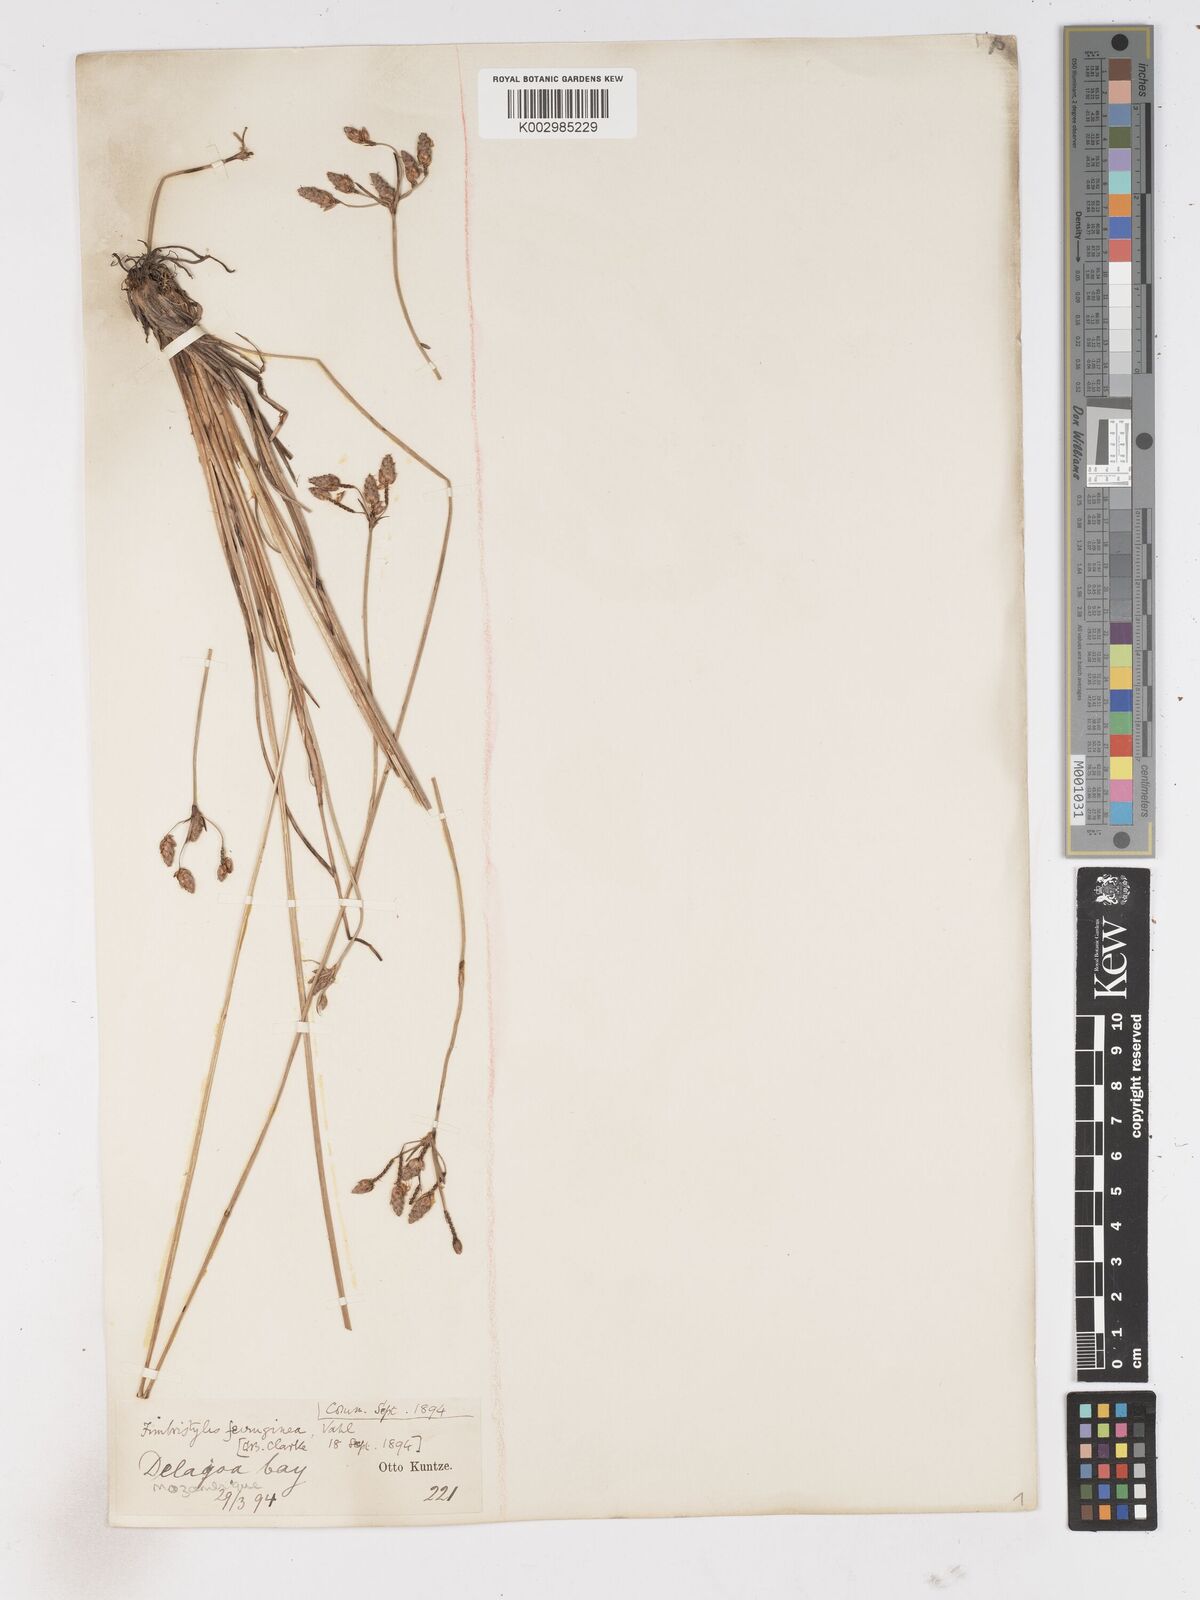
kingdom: Plantae
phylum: Tracheophyta
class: Liliopsida
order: Poales
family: Cyperaceae
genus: Fimbristylis
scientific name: Fimbristylis ferruginea
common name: West indian fimbry
